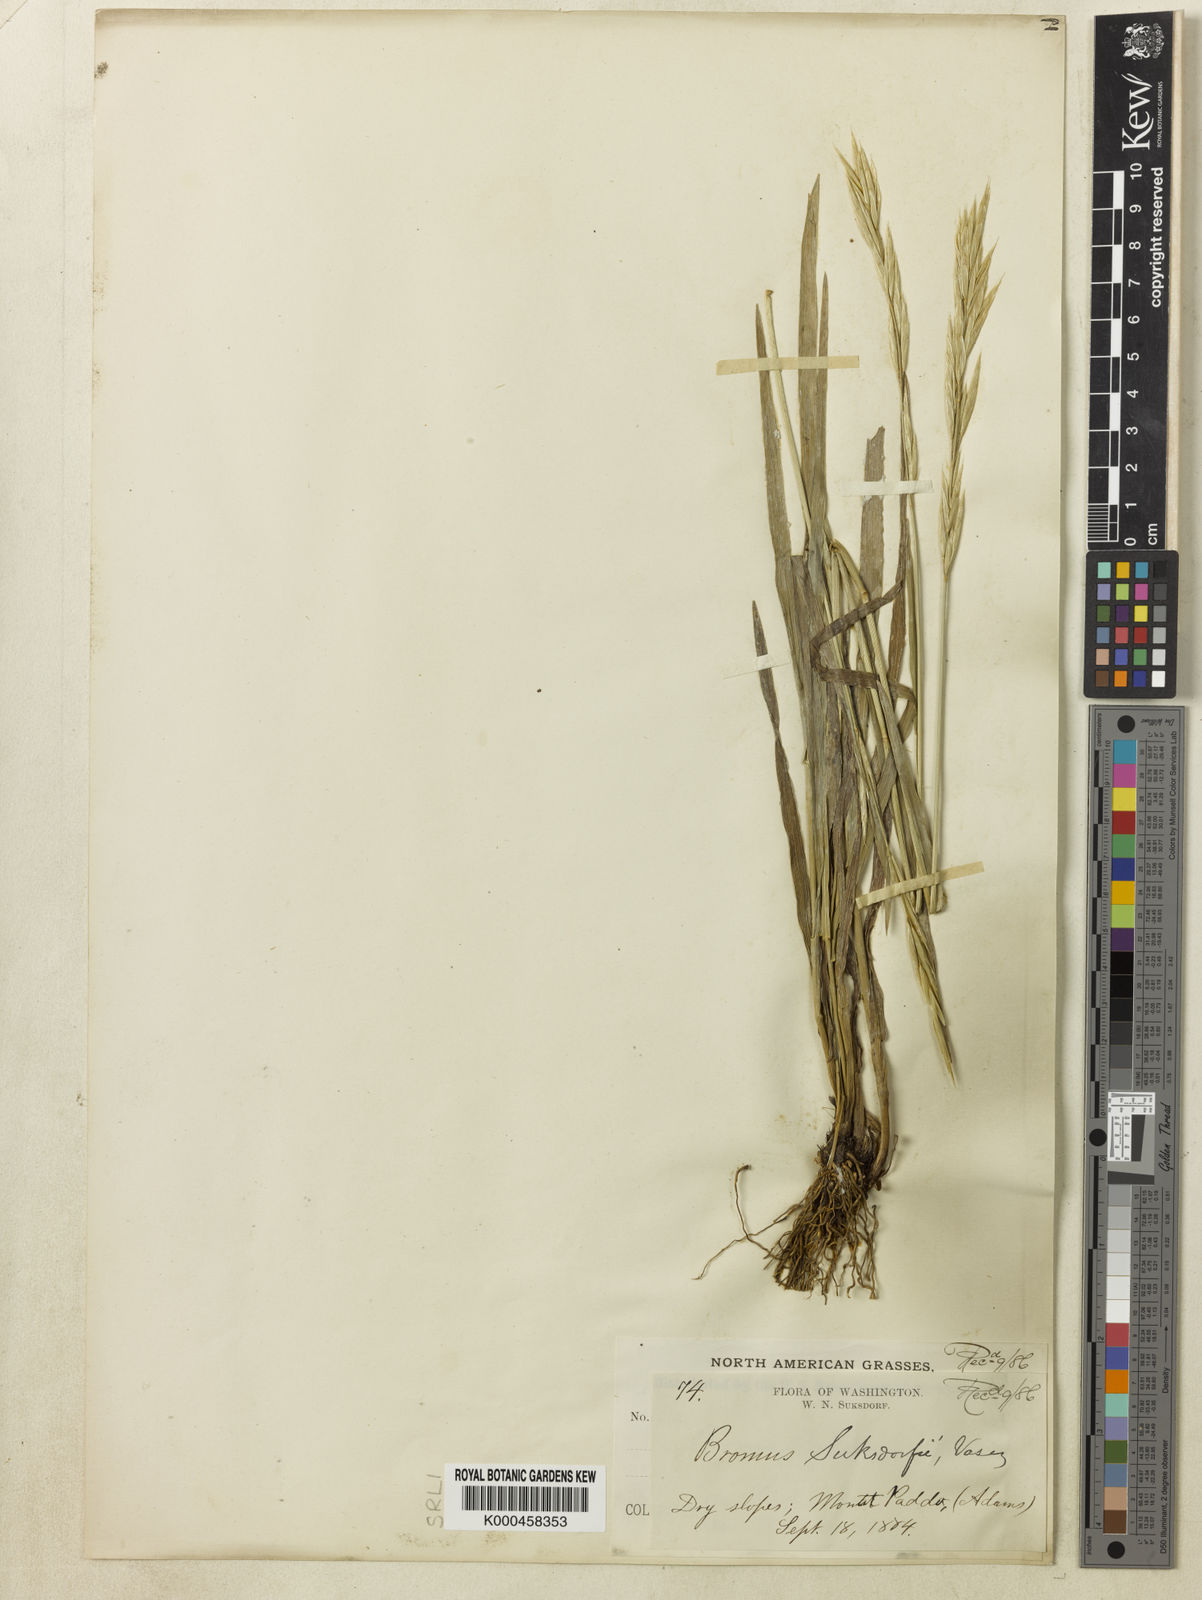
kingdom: Plantae
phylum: Tracheophyta
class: Liliopsida
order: Poales
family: Poaceae
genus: Bromus
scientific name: Bromus suksdorfii
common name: Suksdorf's brome
